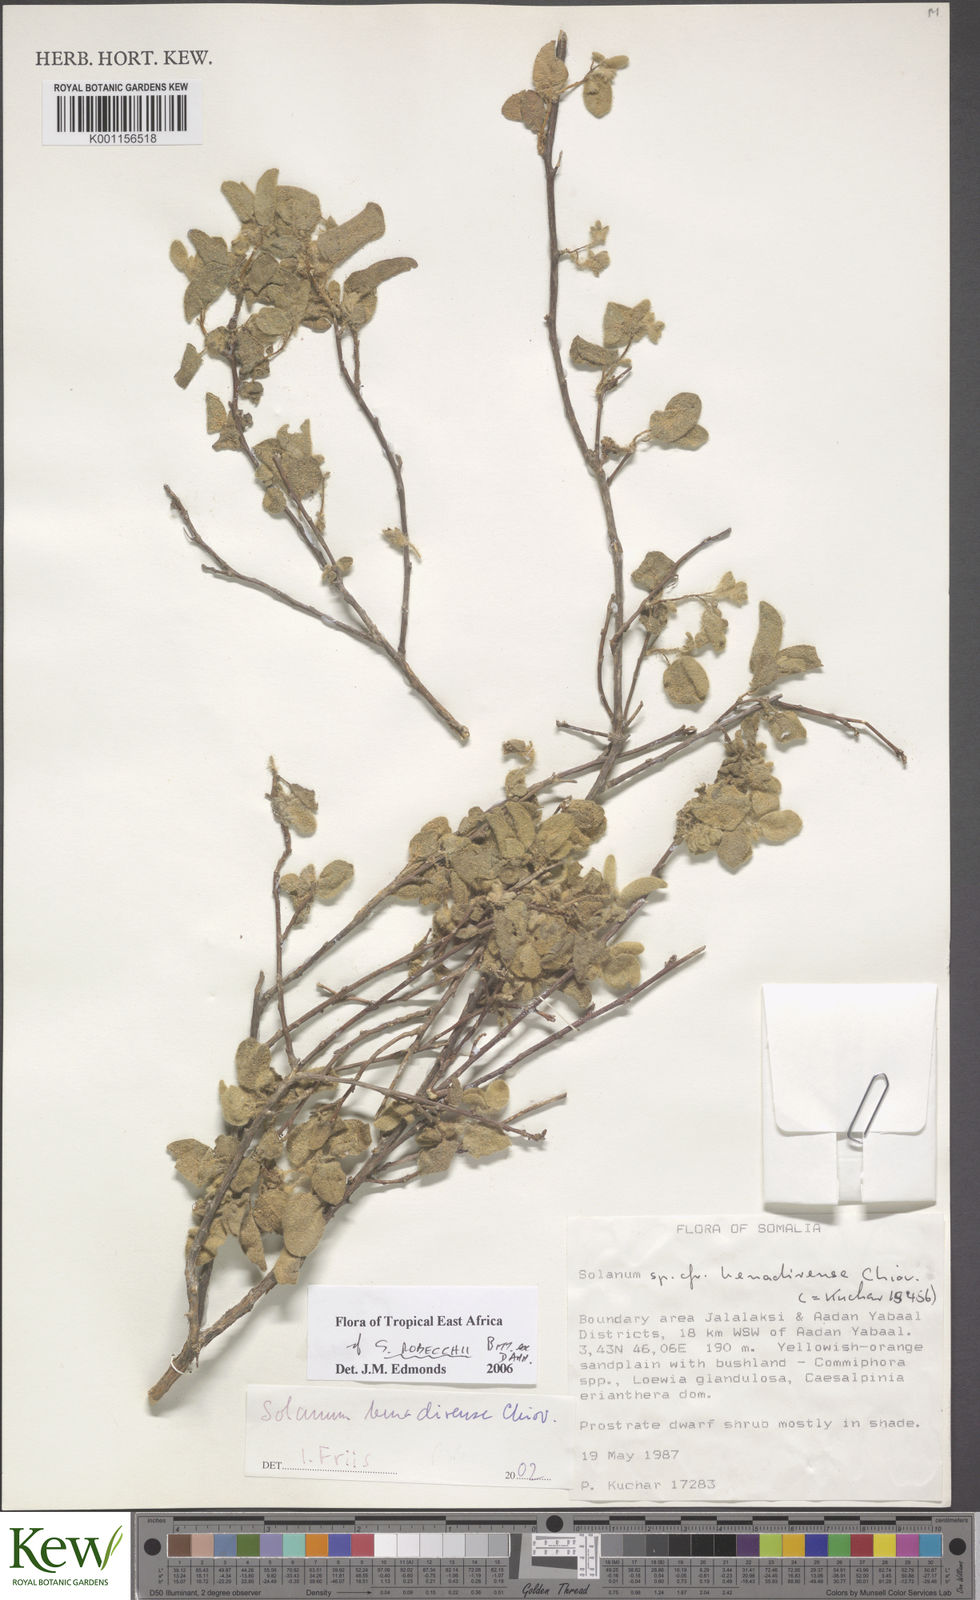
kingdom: Plantae
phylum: Tracheophyta
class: Magnoliopsida
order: Solanales
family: Solanaceae
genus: Solanum
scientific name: Solanum pampaninii
